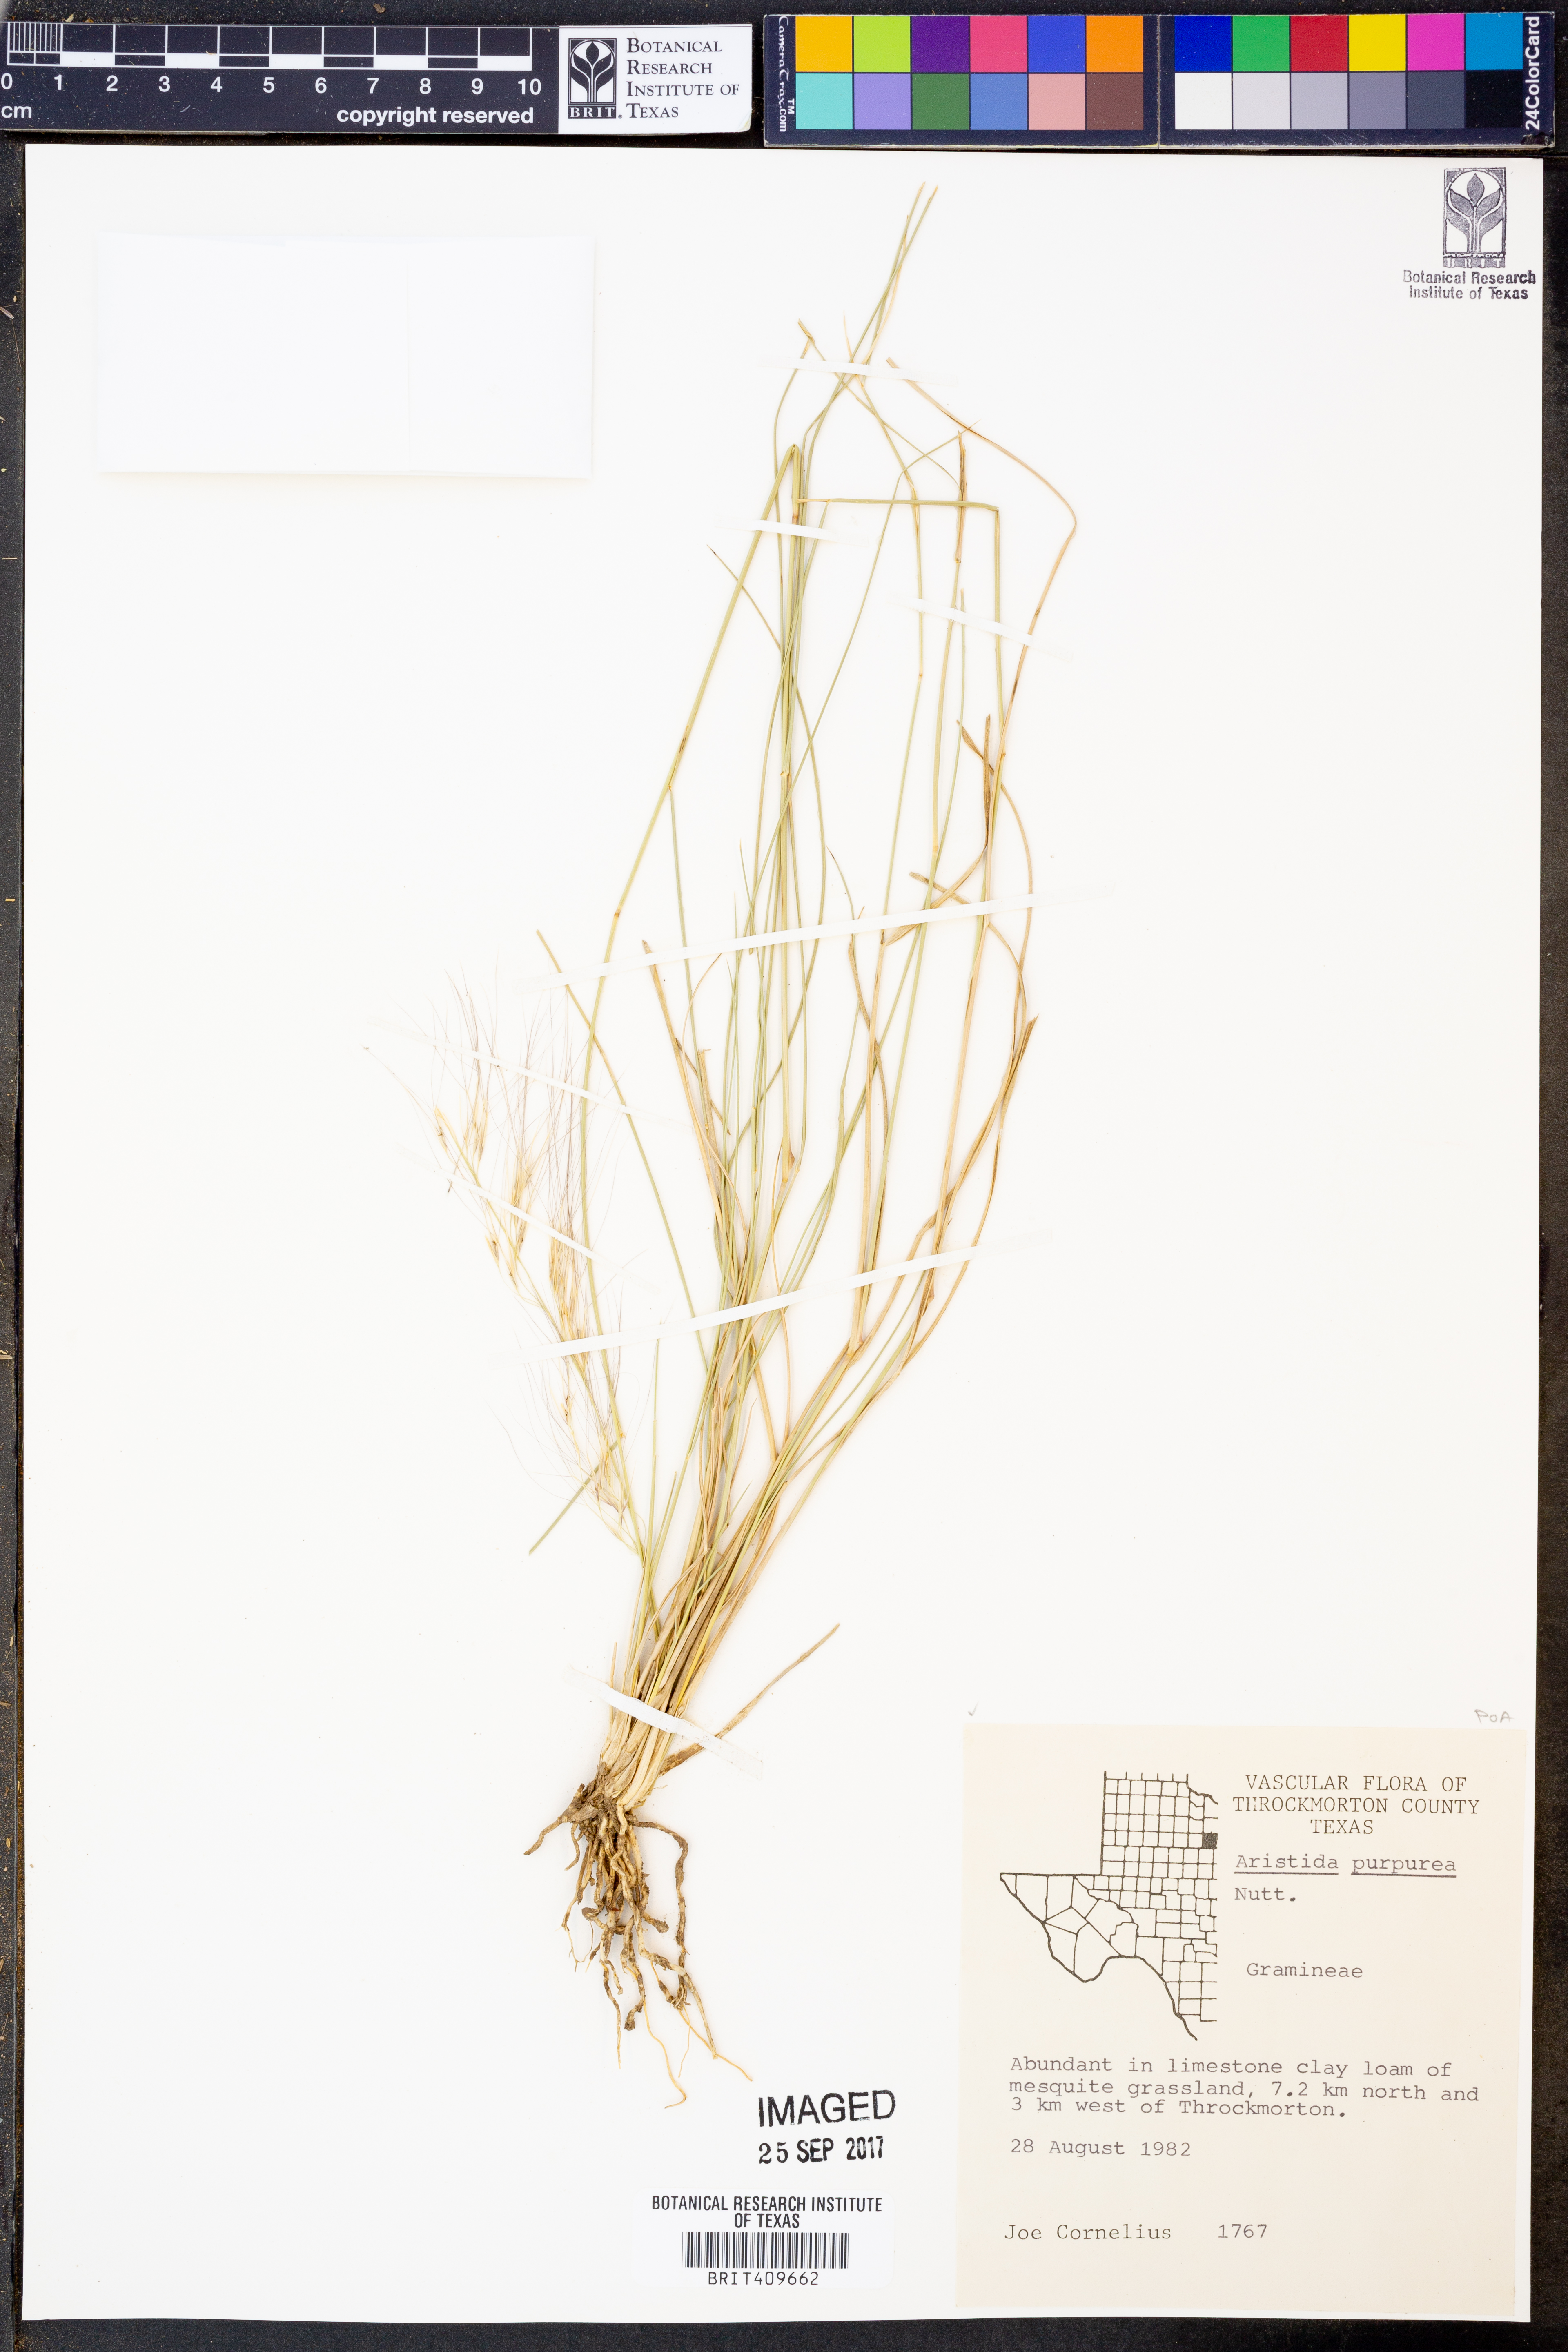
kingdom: Plantae
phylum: Tracheophyta
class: Liliopsida
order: Poales
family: Poaceae
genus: Aristida
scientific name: Aristida purpurea
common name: Purple threeawn
